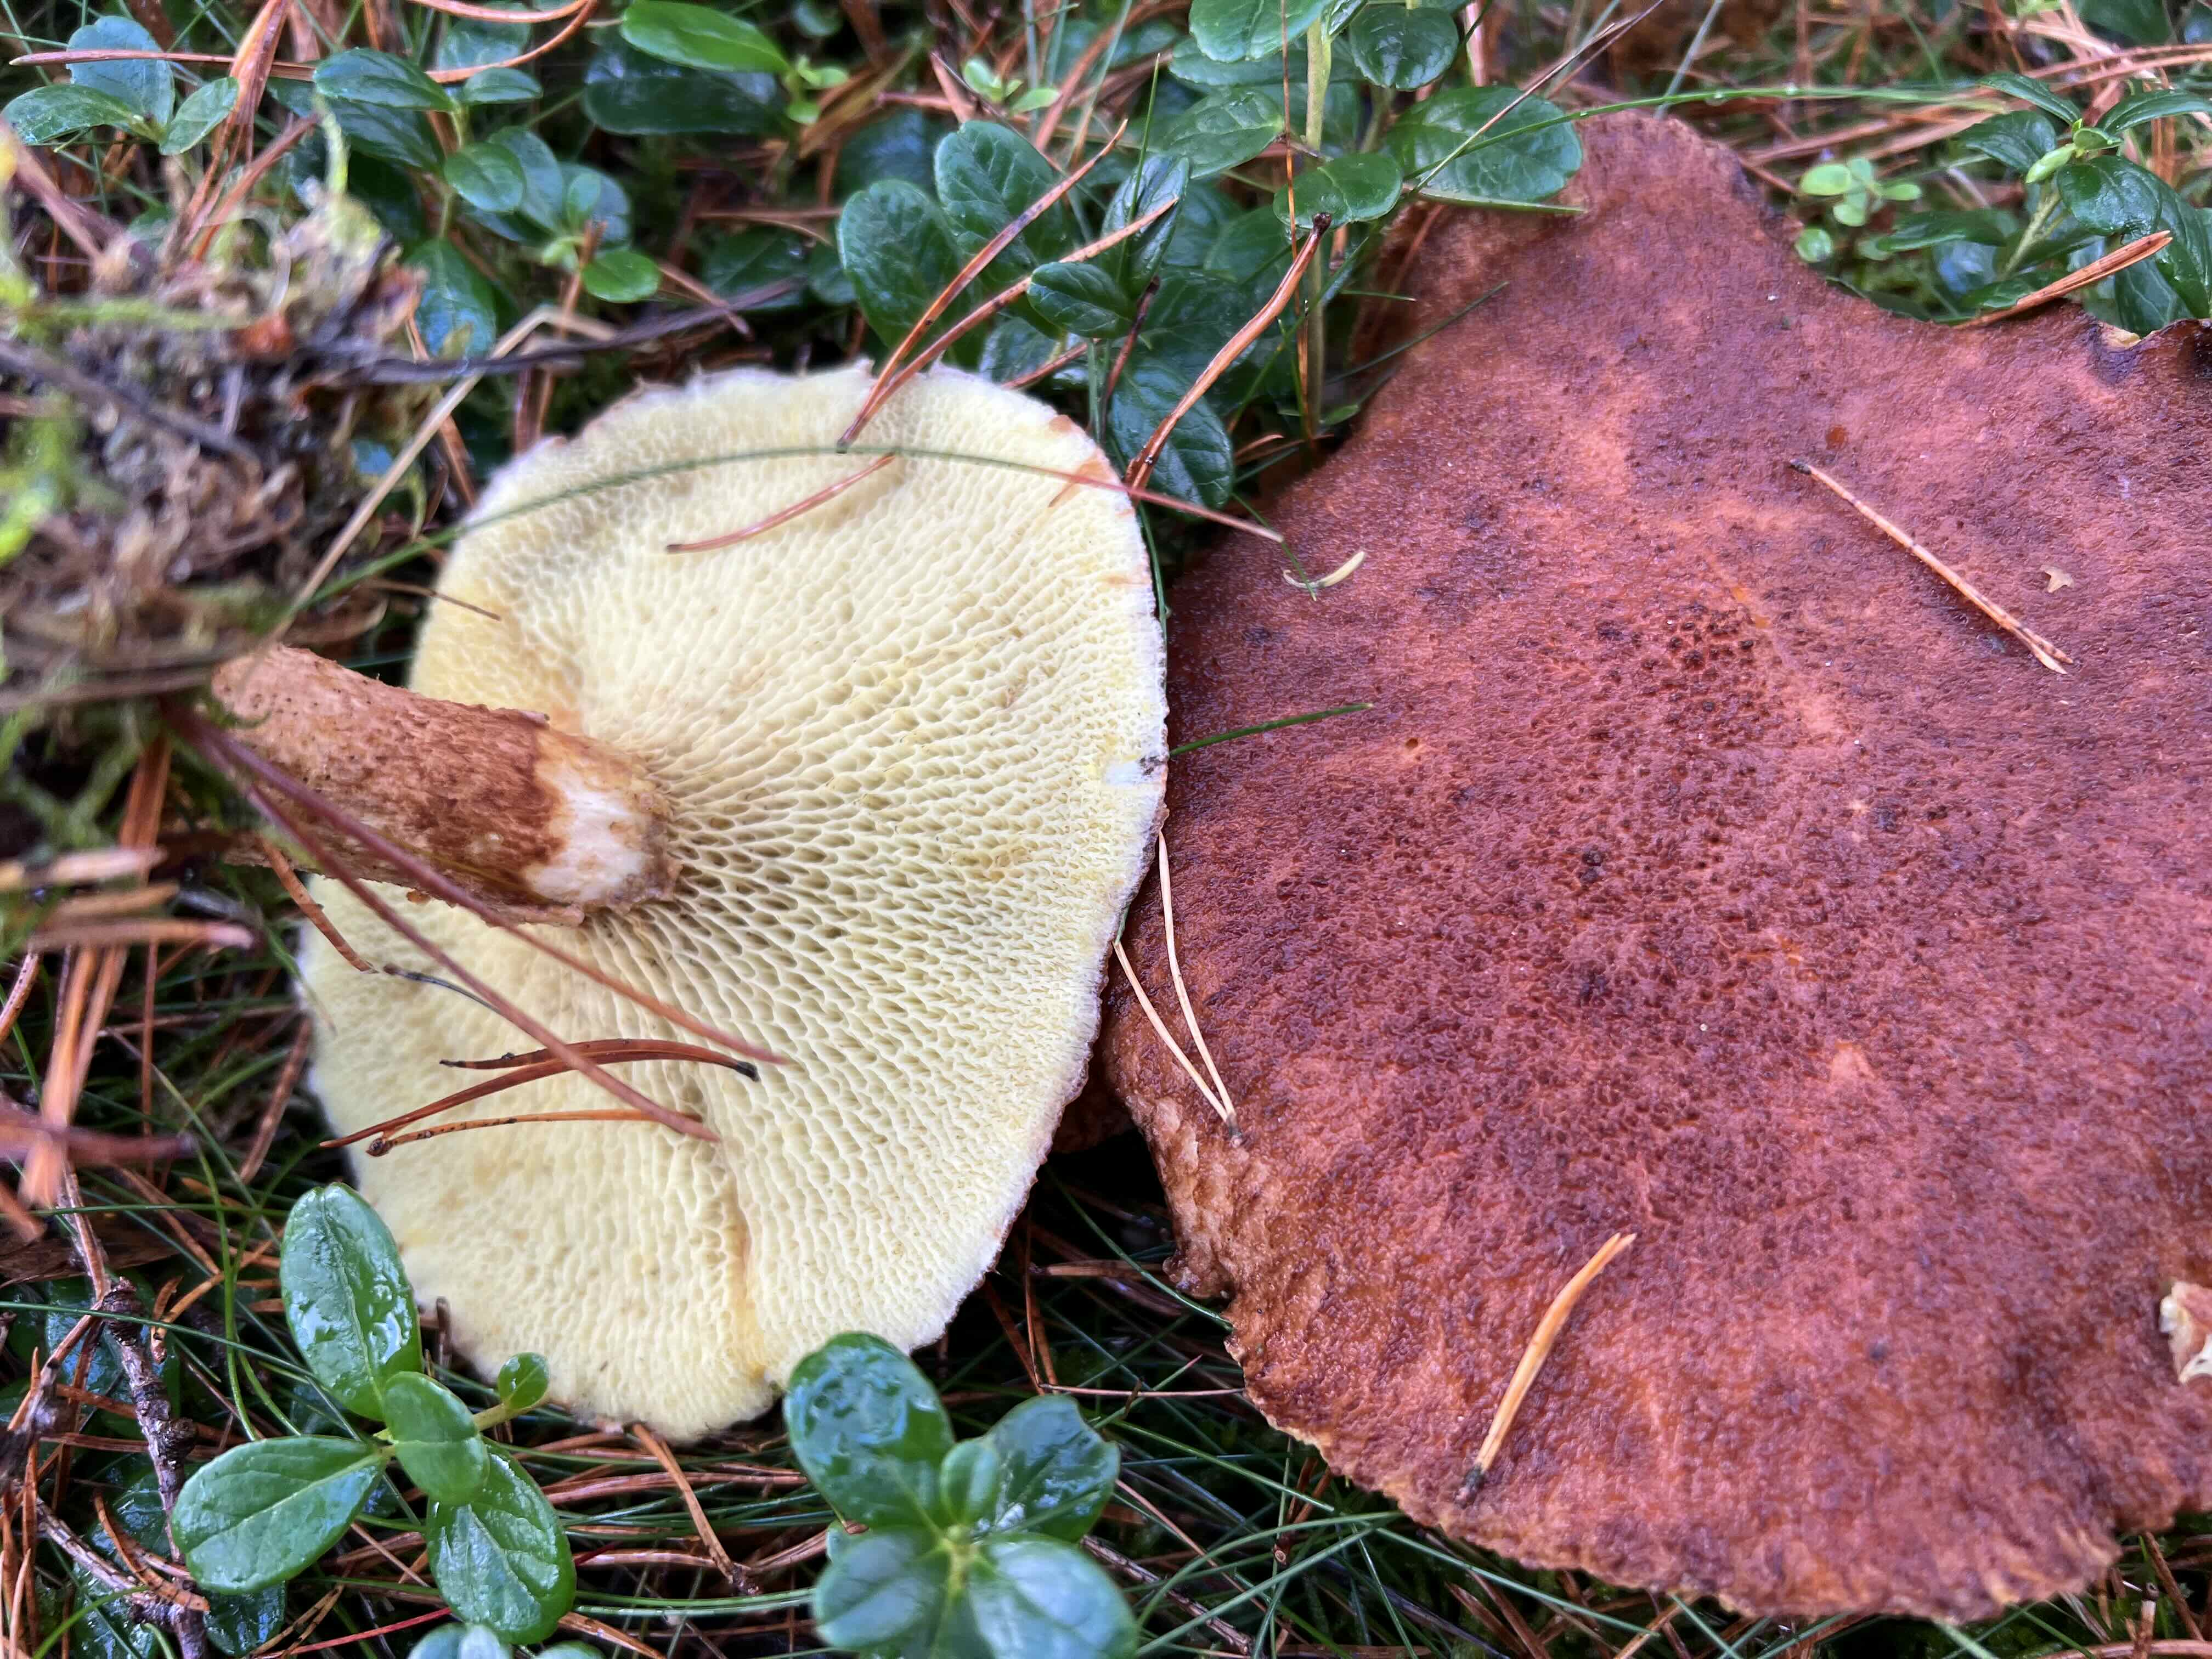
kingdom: Fungi
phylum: Basidiomycota
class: Agaricomycetes
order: Boletales
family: Suillaceae
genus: Suillus
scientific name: Suillus cavipes
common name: hulstokket slimrørhat
